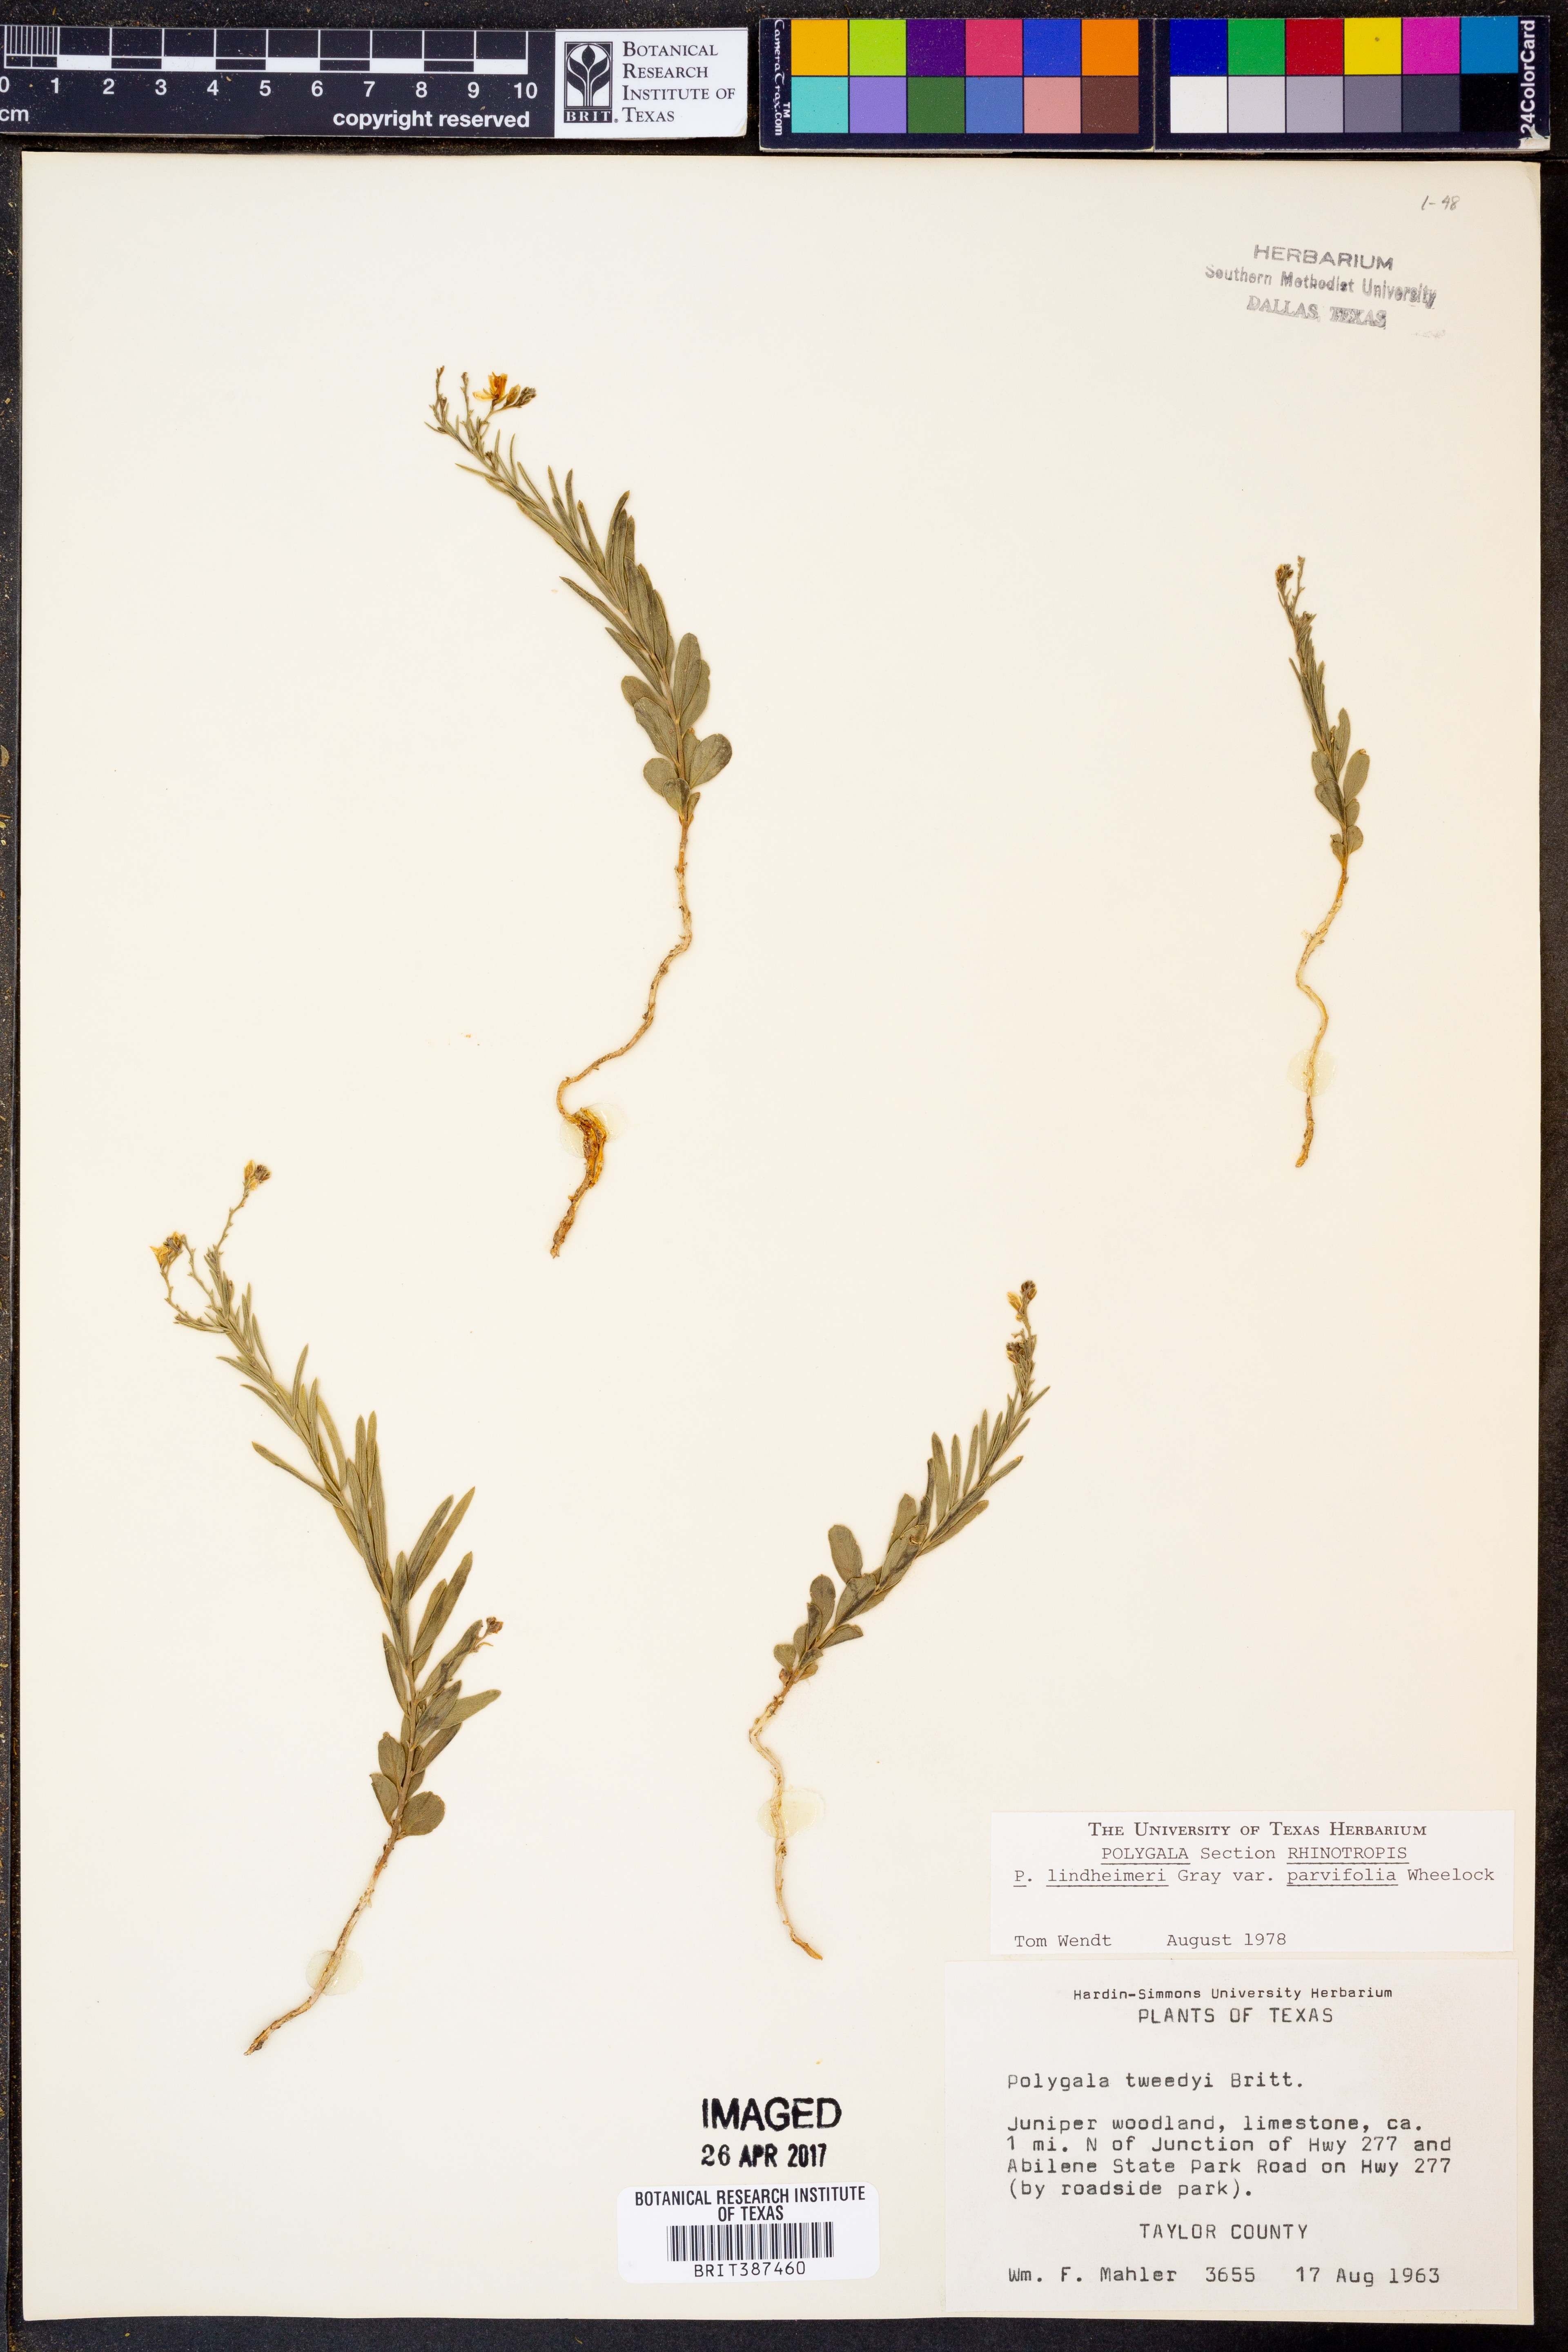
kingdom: Plantae
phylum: Tracheophyta
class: Magnoliopsida
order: Fabales
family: Polygalaceae
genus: Rhinotropis
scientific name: Rhinotropis lindheimeri
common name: Shrubby milkwort
